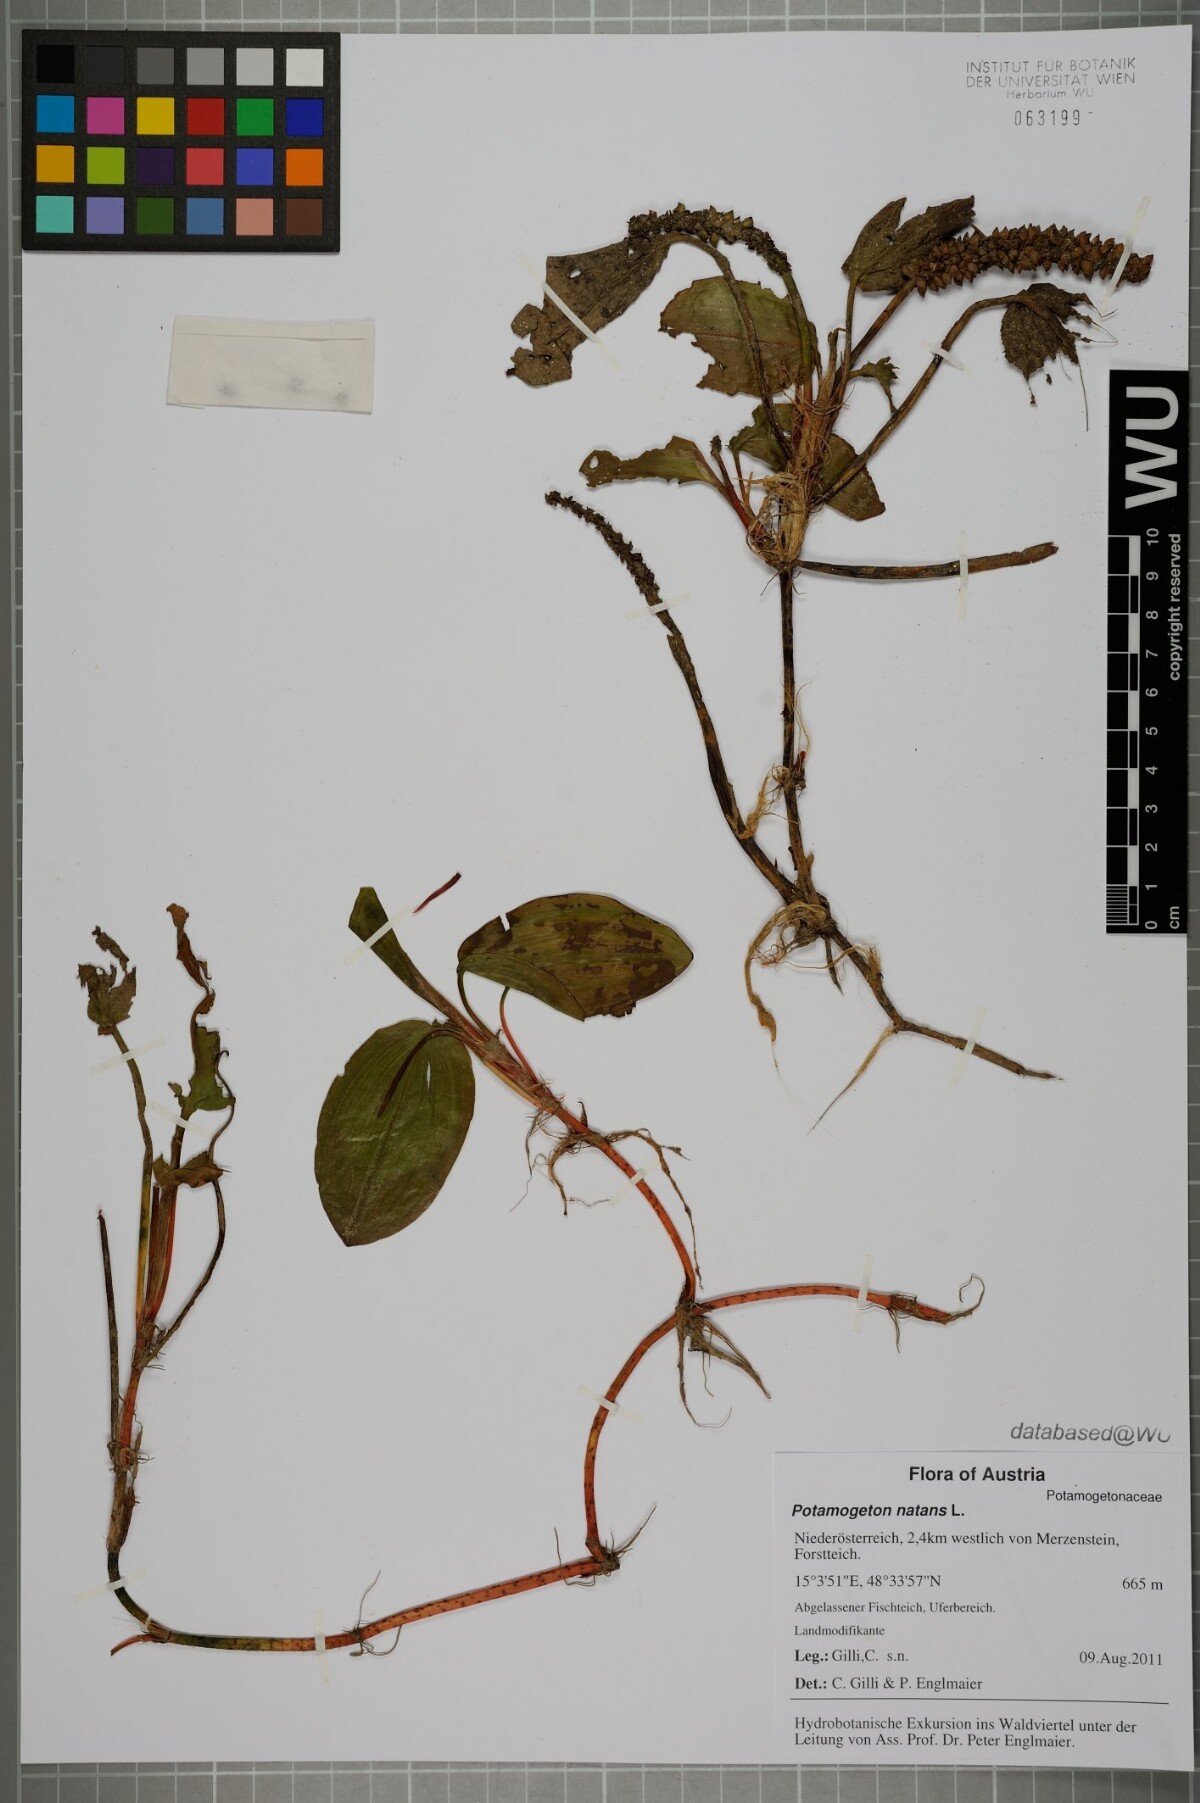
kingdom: Plantae
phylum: Tracheophyta
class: Liliopsida
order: Alismatales
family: Potamogetonaceae
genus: Potamogeton
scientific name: Potamogeton natans
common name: Broad-leaved pondweed
